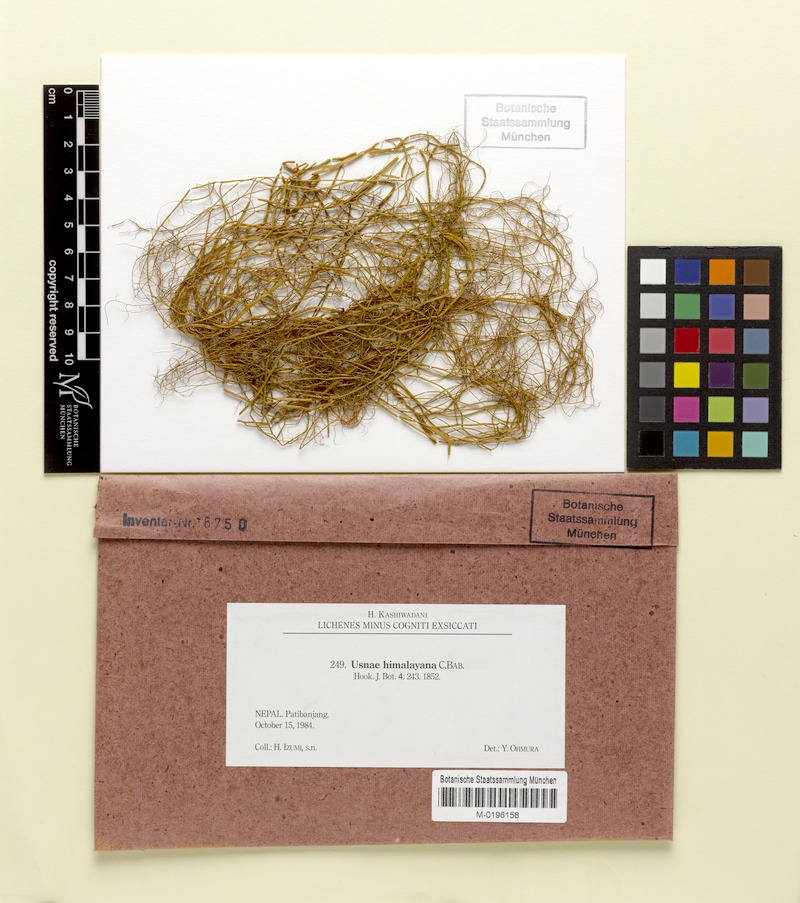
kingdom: Fungi
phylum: Ascomycota
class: Lecanoromycetes
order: Lecanorales
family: Parmeliaceae
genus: Usnea
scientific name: Usnea himalayana
